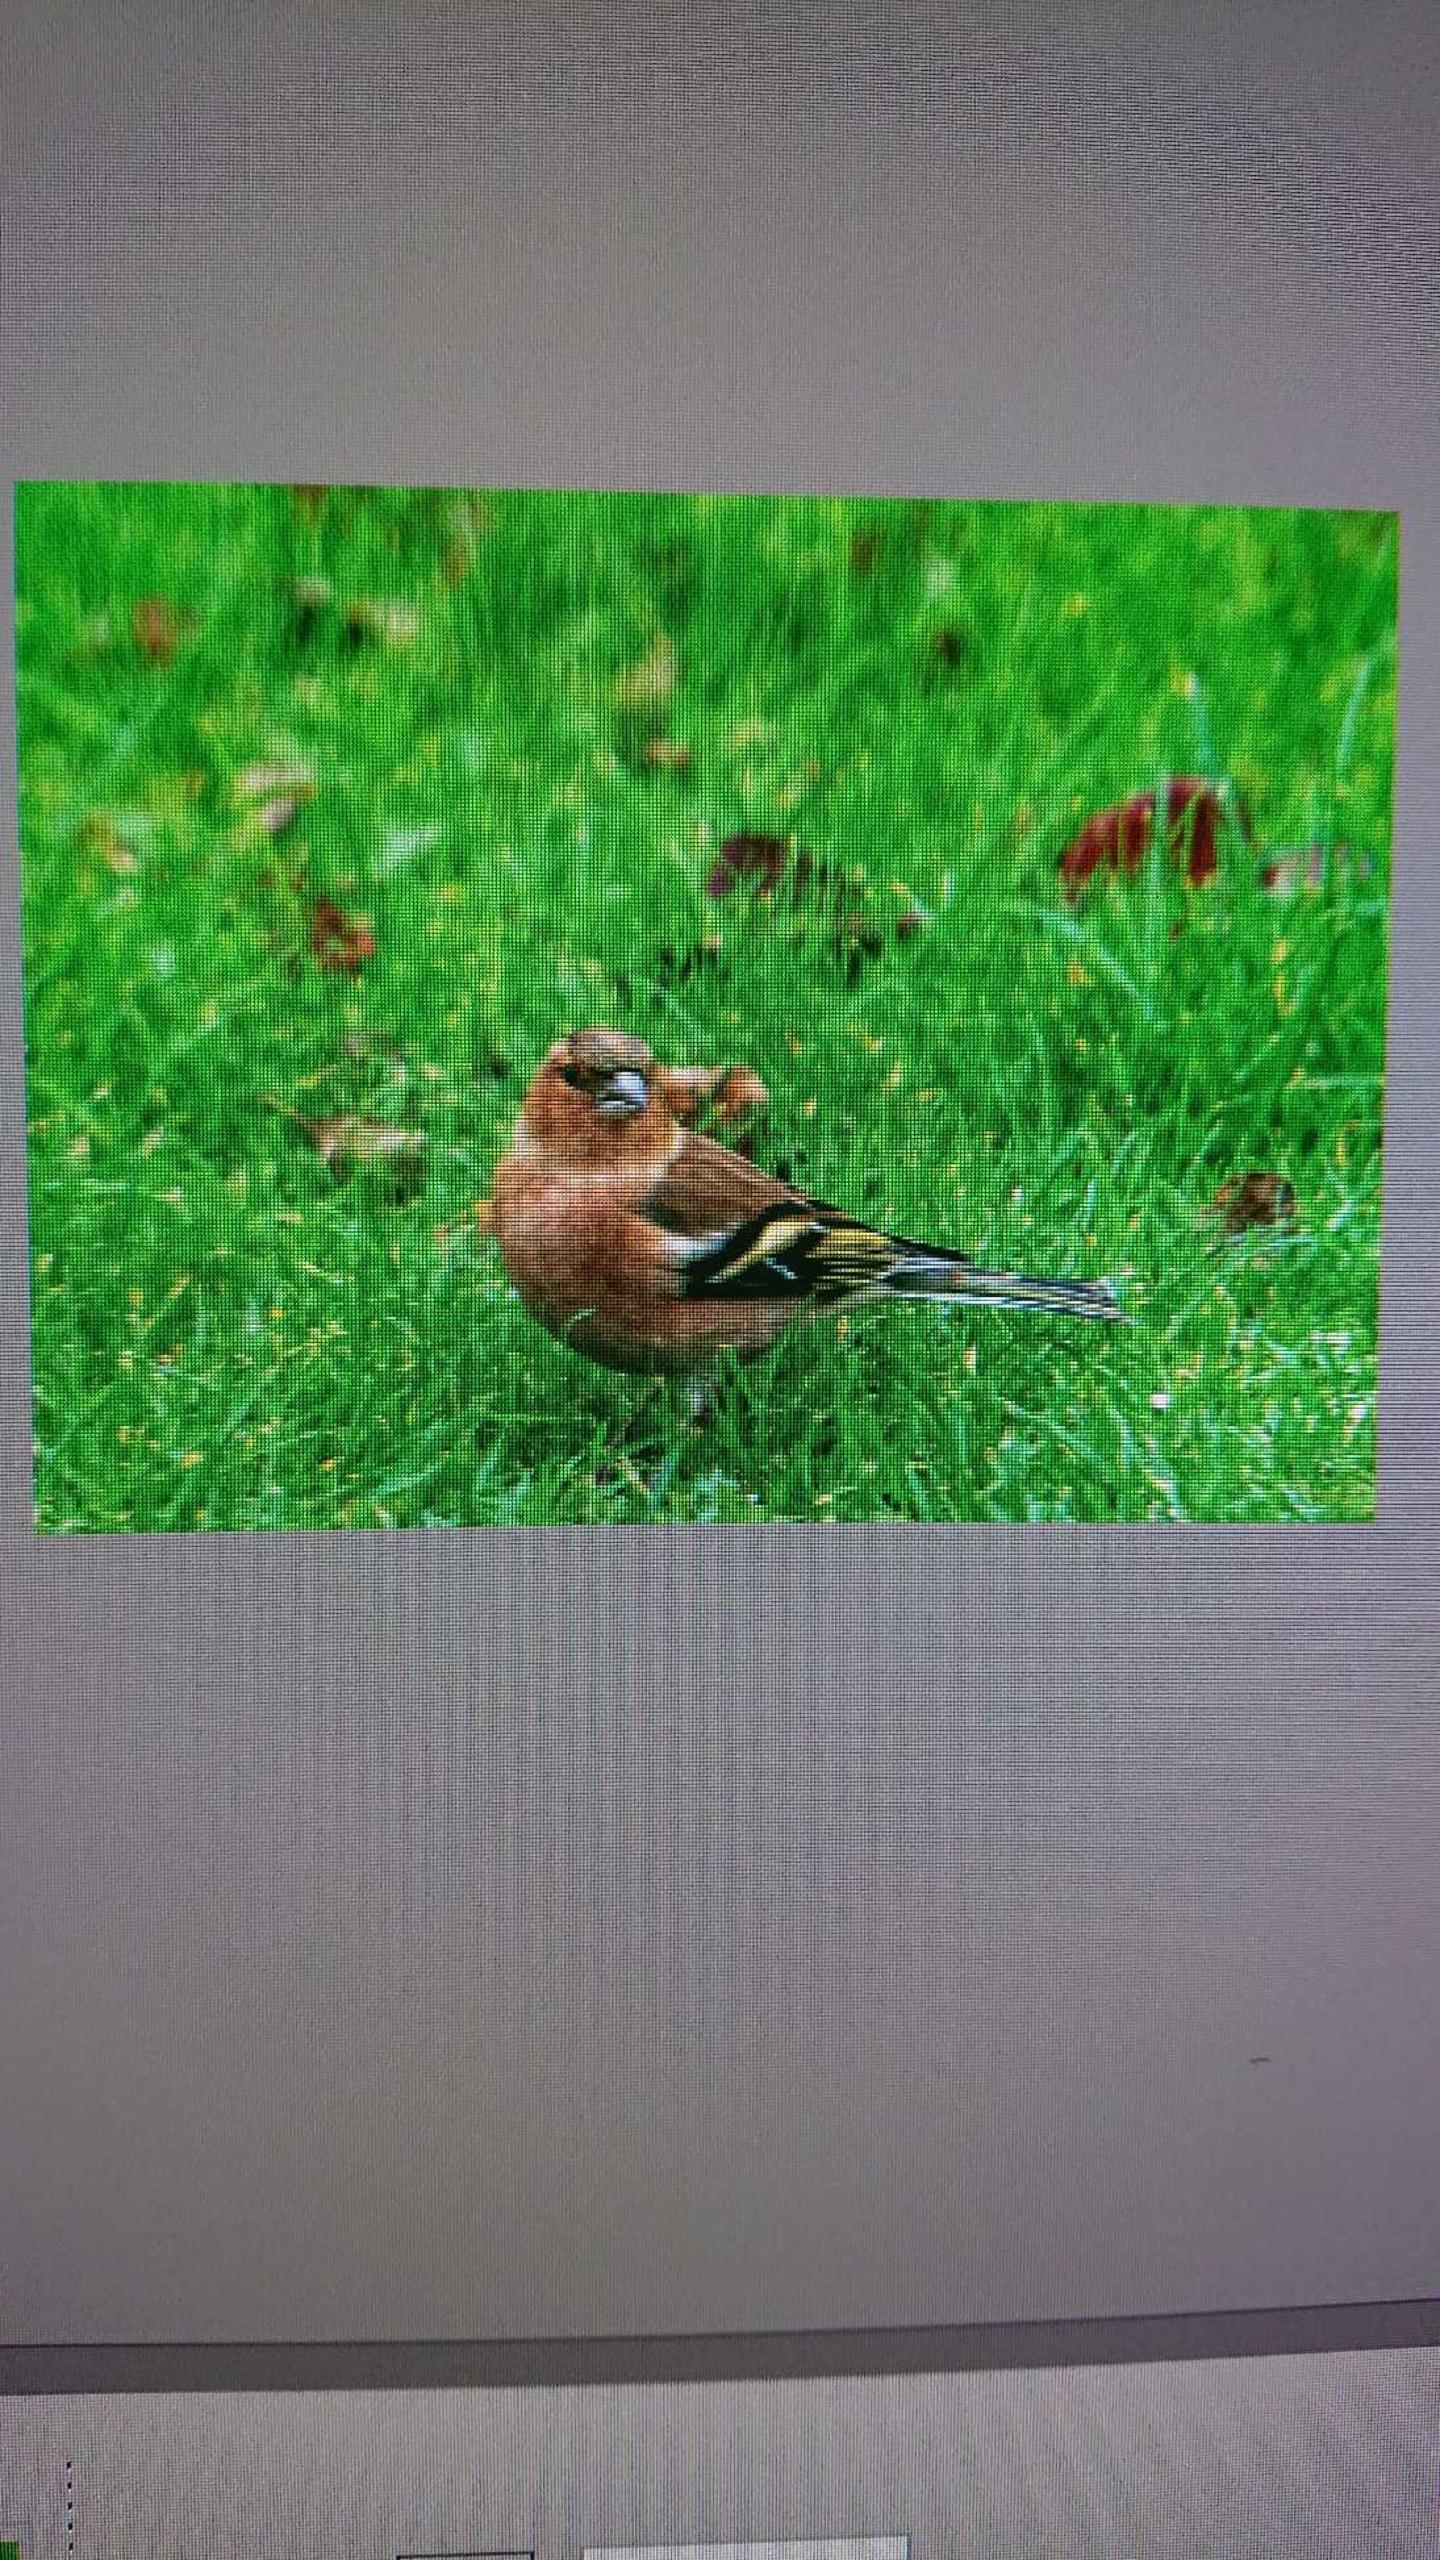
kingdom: Animalia
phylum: Chordata
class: Aves
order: Passeriformes
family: Fringillidae
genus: Fringilla
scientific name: Fringilla coelebs
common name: Bogfinke
